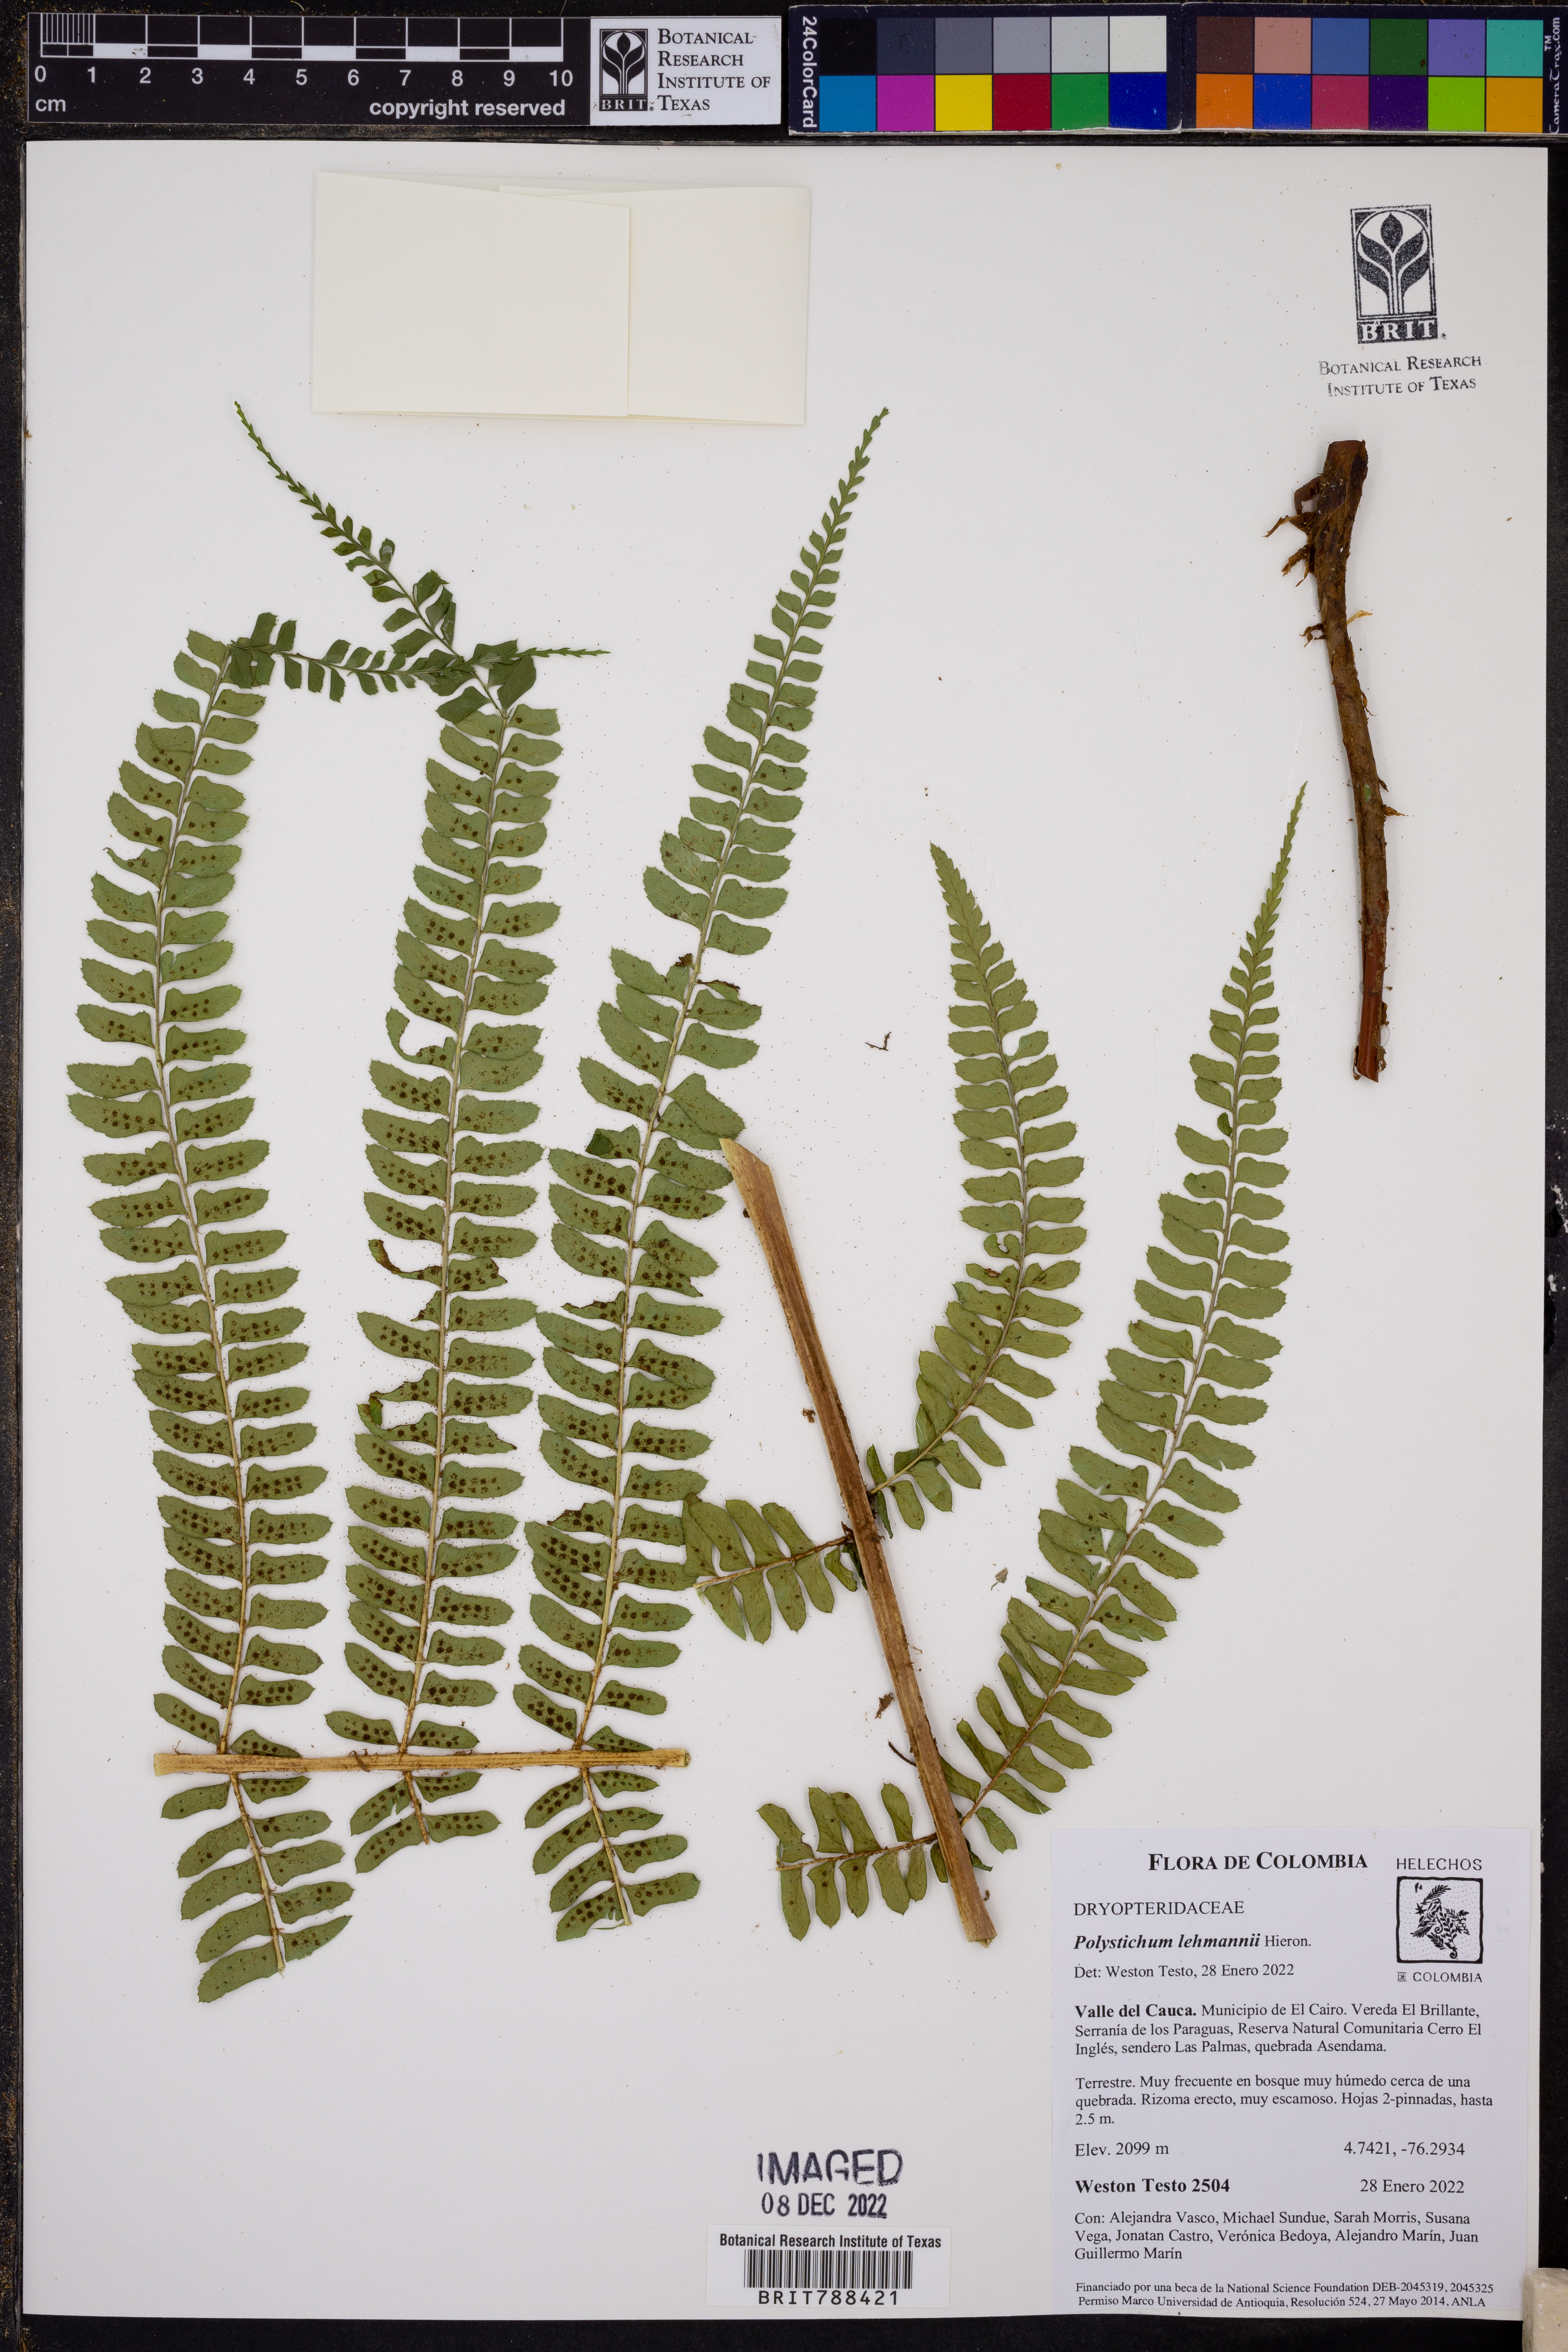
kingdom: Plantae
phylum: Tracheophyta
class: Polypodiopsida
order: Polypodiales
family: Dryopteridaceae
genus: Polystichum
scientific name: Polystichum lehmannii
